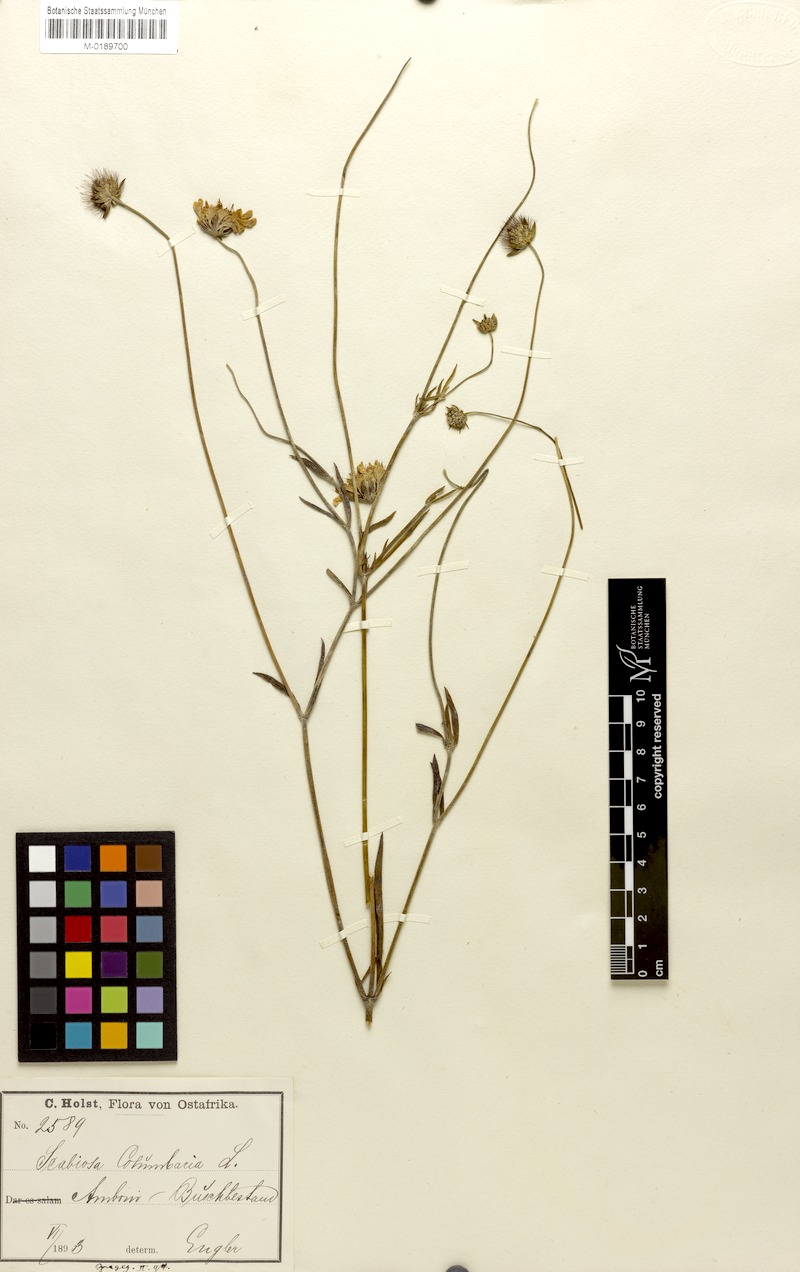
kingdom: Plantae
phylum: Tracheophyta
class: Magnoliopsida
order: Dipsacales
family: Caprifoliaceae
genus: Scabiosa
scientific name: Scabiosa columbaria
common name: Small scabious
